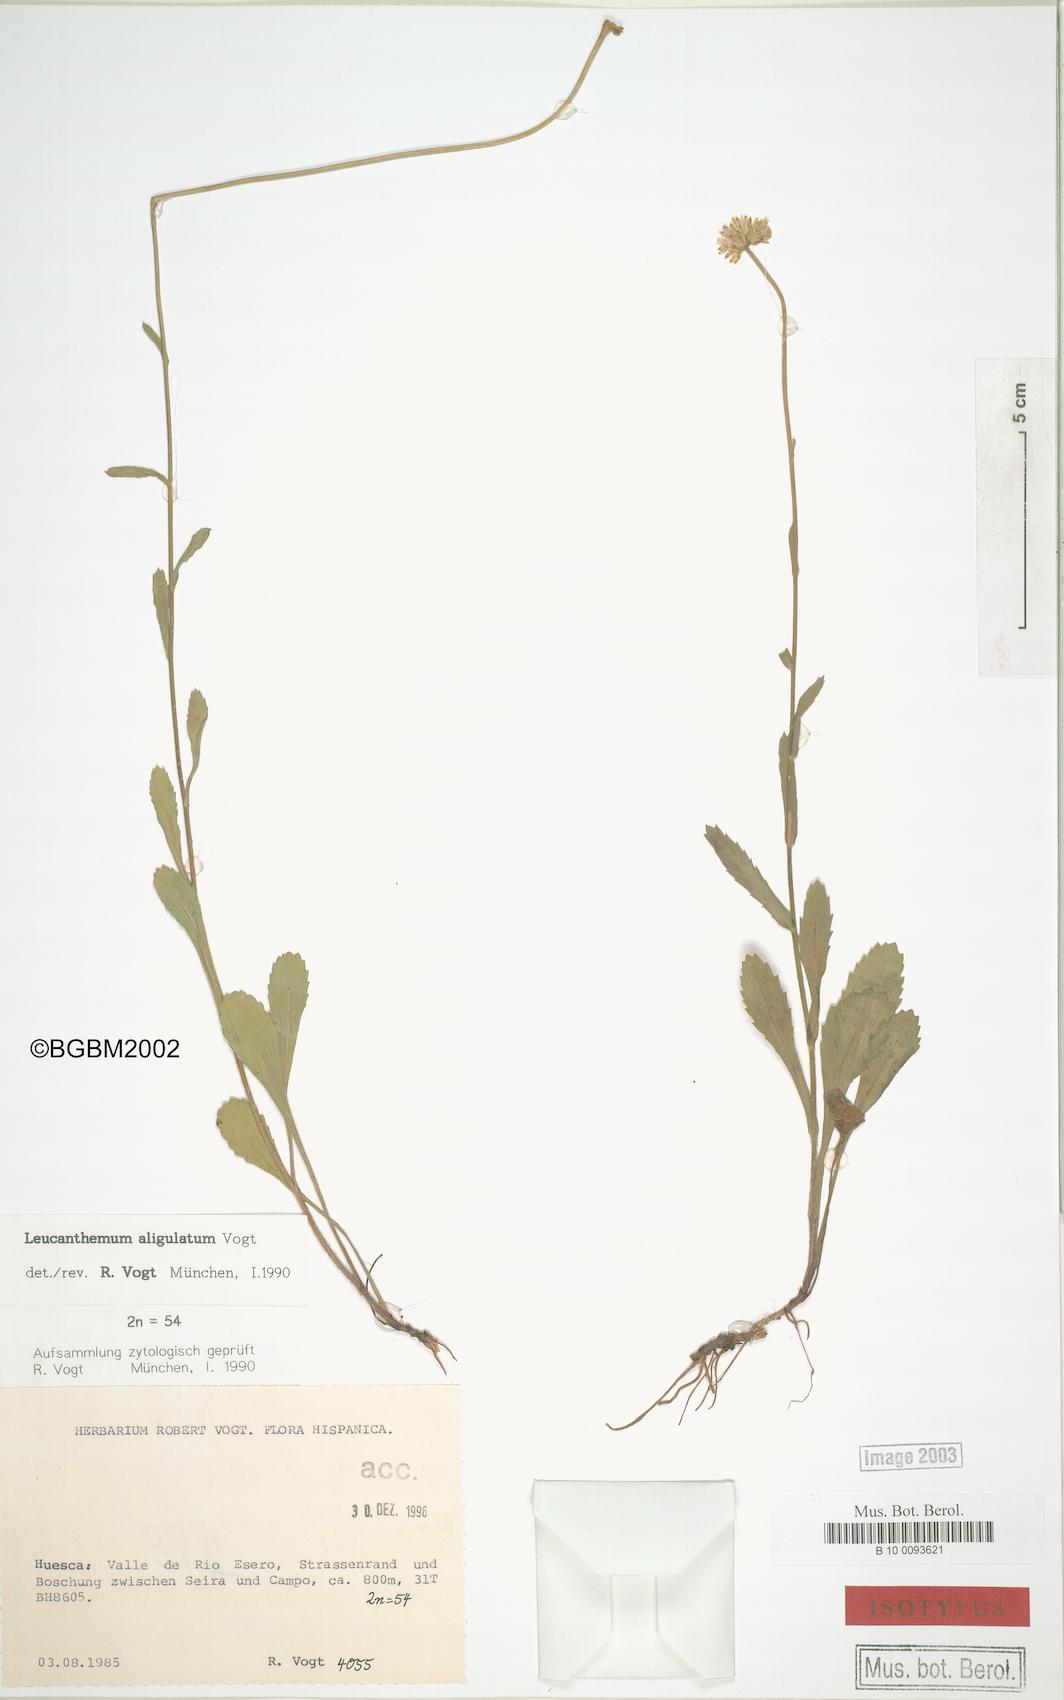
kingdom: Plantae
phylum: Tracheophyta
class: Magnoliopsida
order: Asterales
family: Asteraceae
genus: Leucanthemum
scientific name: Leucanthemum aligulatum
